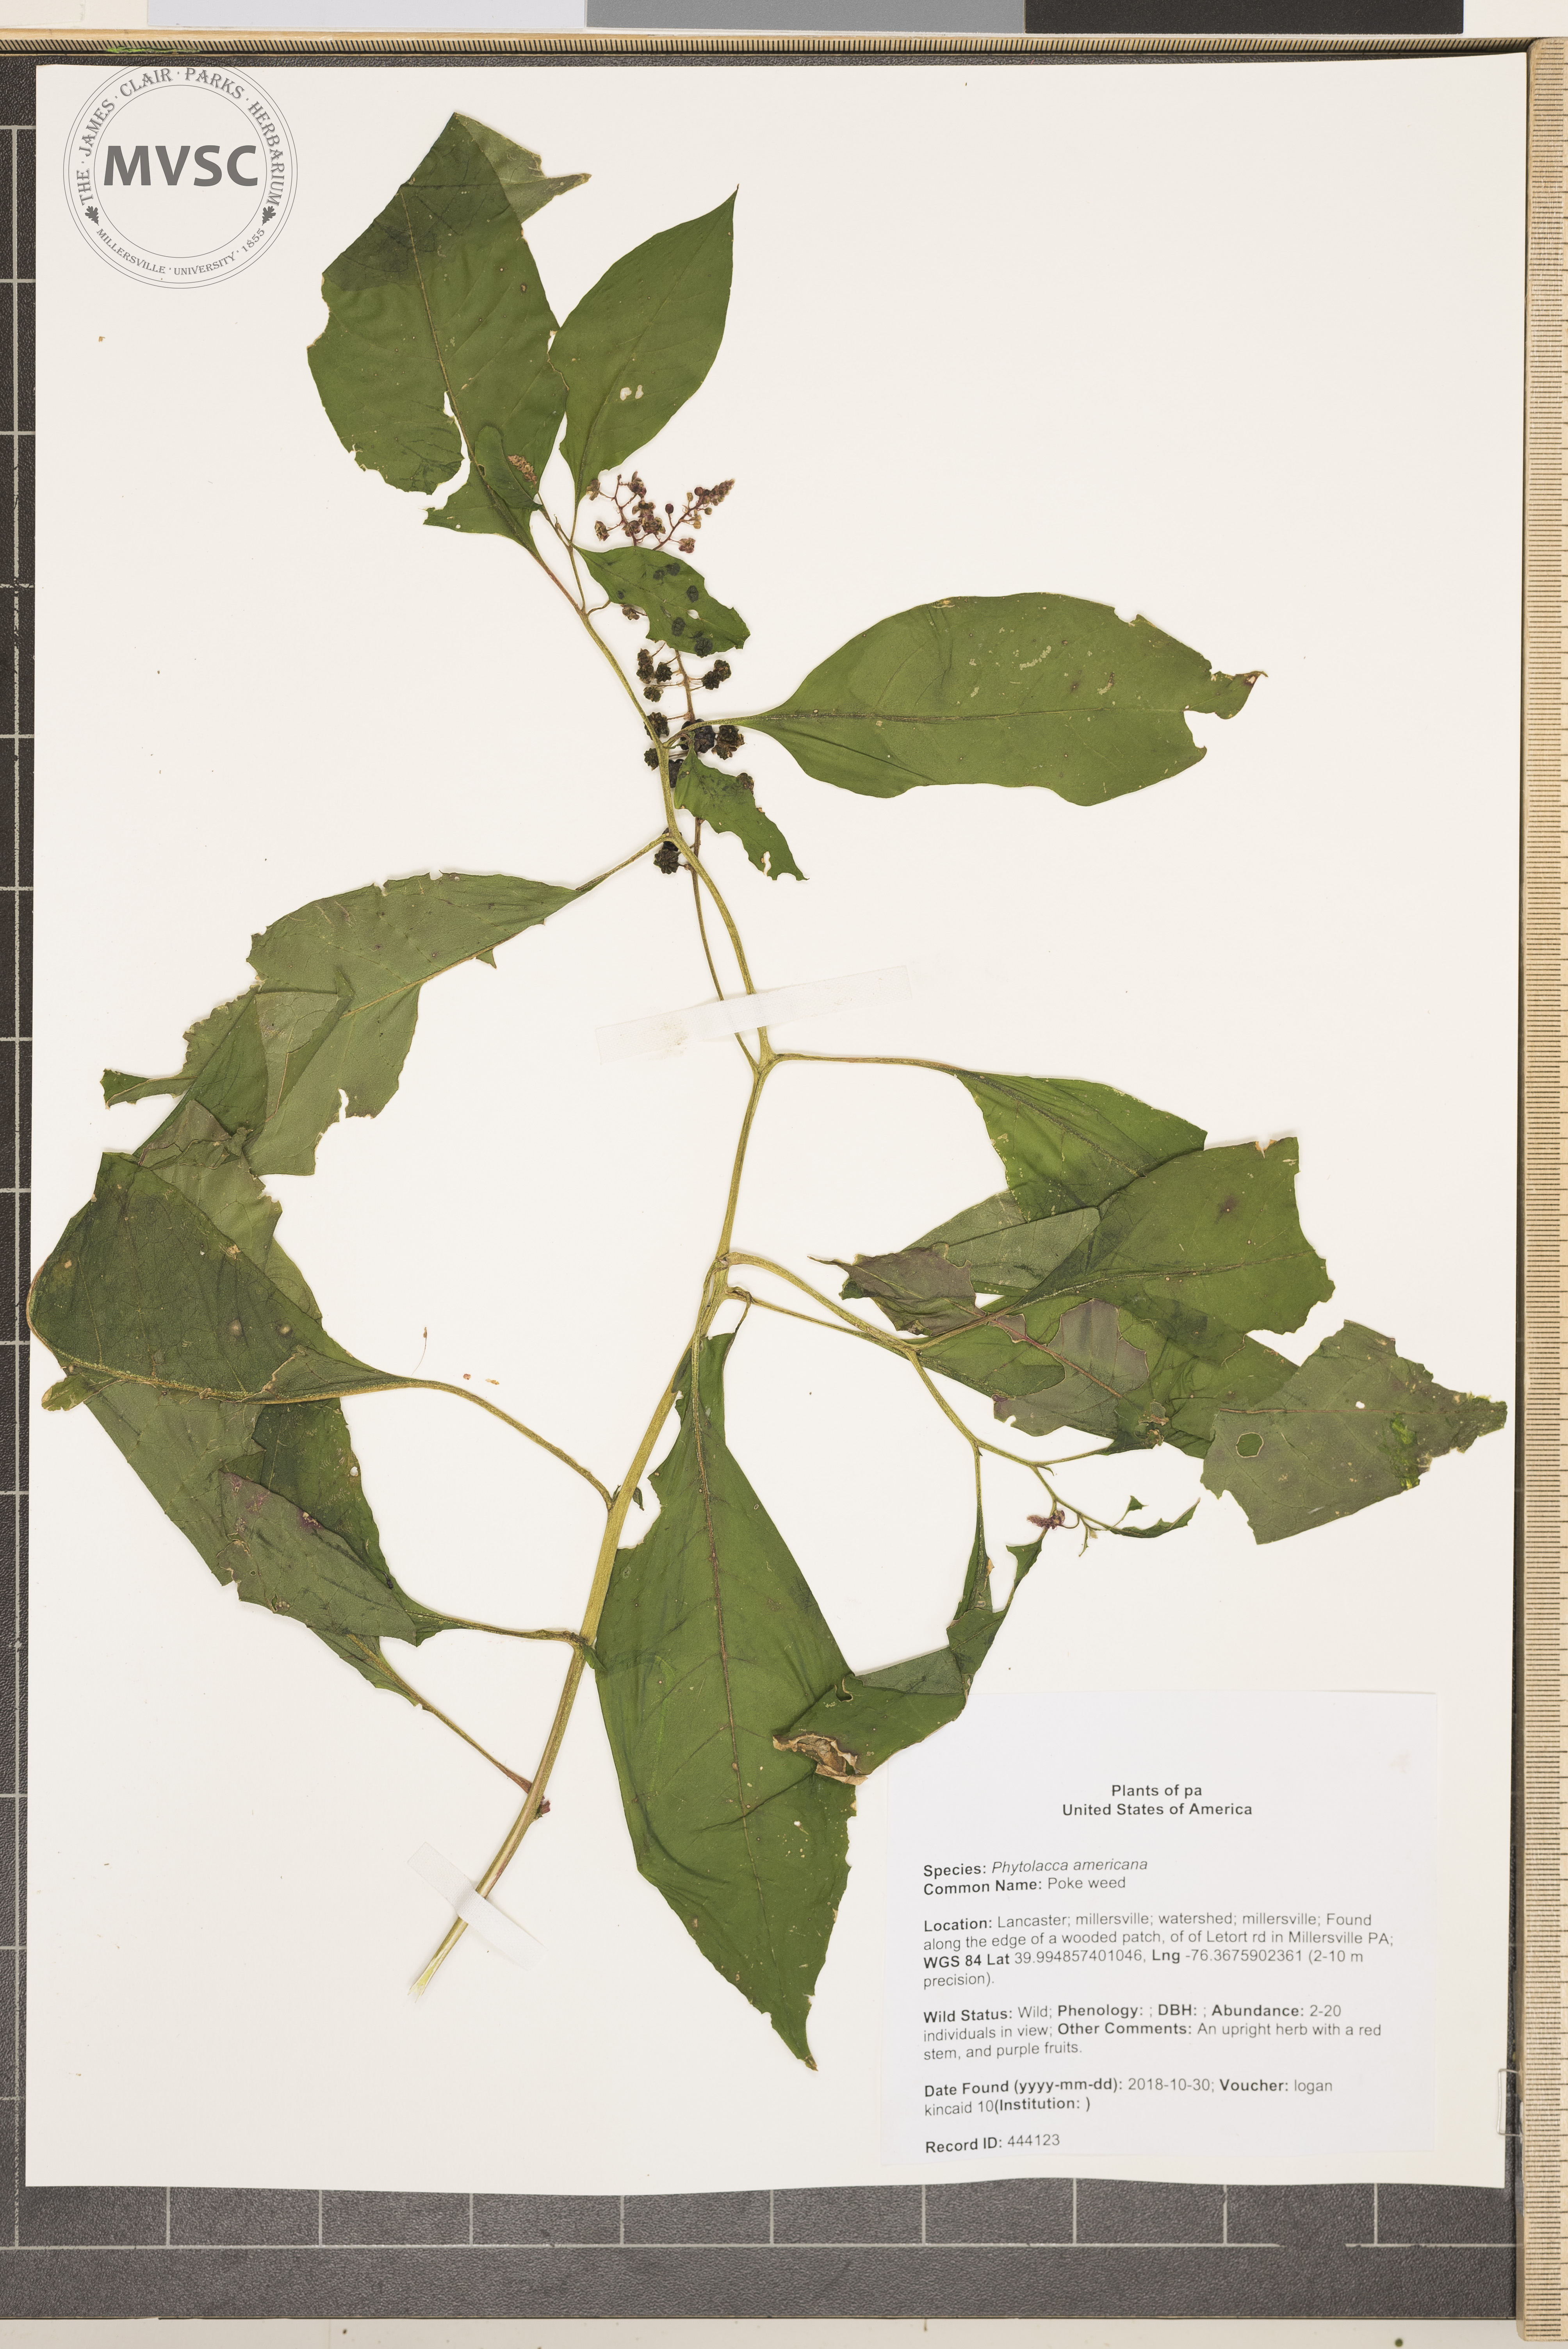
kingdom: Plantae
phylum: Tracheophyta
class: Magnoliopsida
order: Caryophyllales
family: Phytolaccaceae
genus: Phytolacca
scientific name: Phytolacca americana
